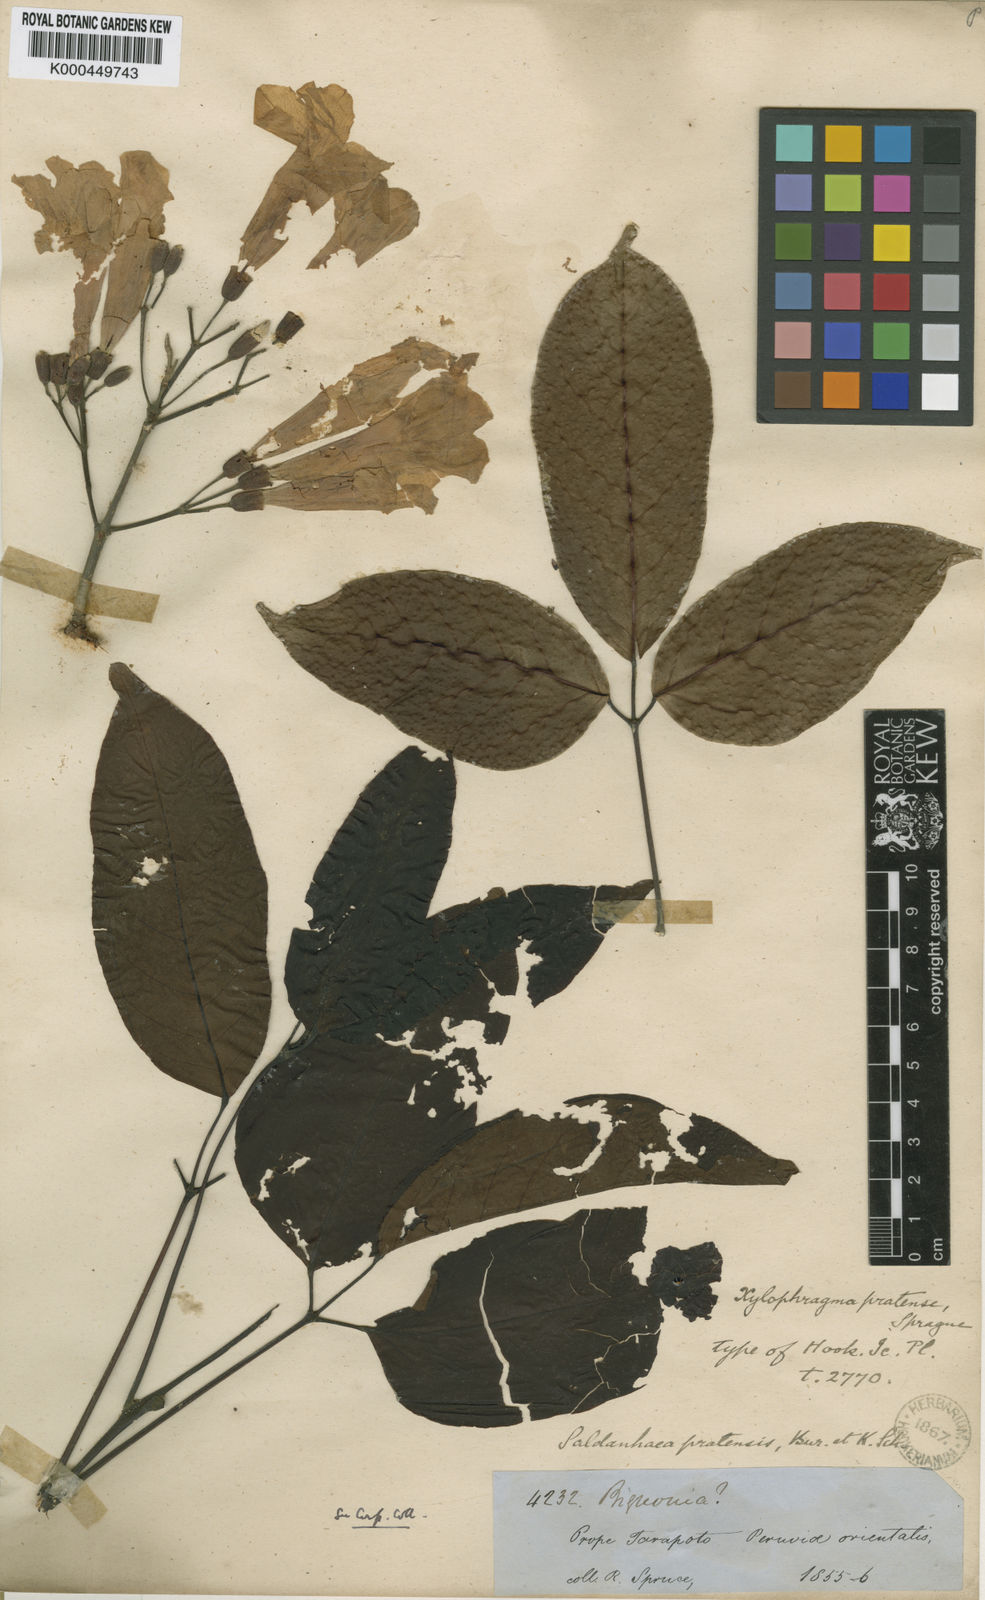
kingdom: Plantae
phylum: Tracheophyta
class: Magnoliopsida
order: Lamiales
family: Bignoniaceae
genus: Xylophragma
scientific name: Xylophragma pratense
